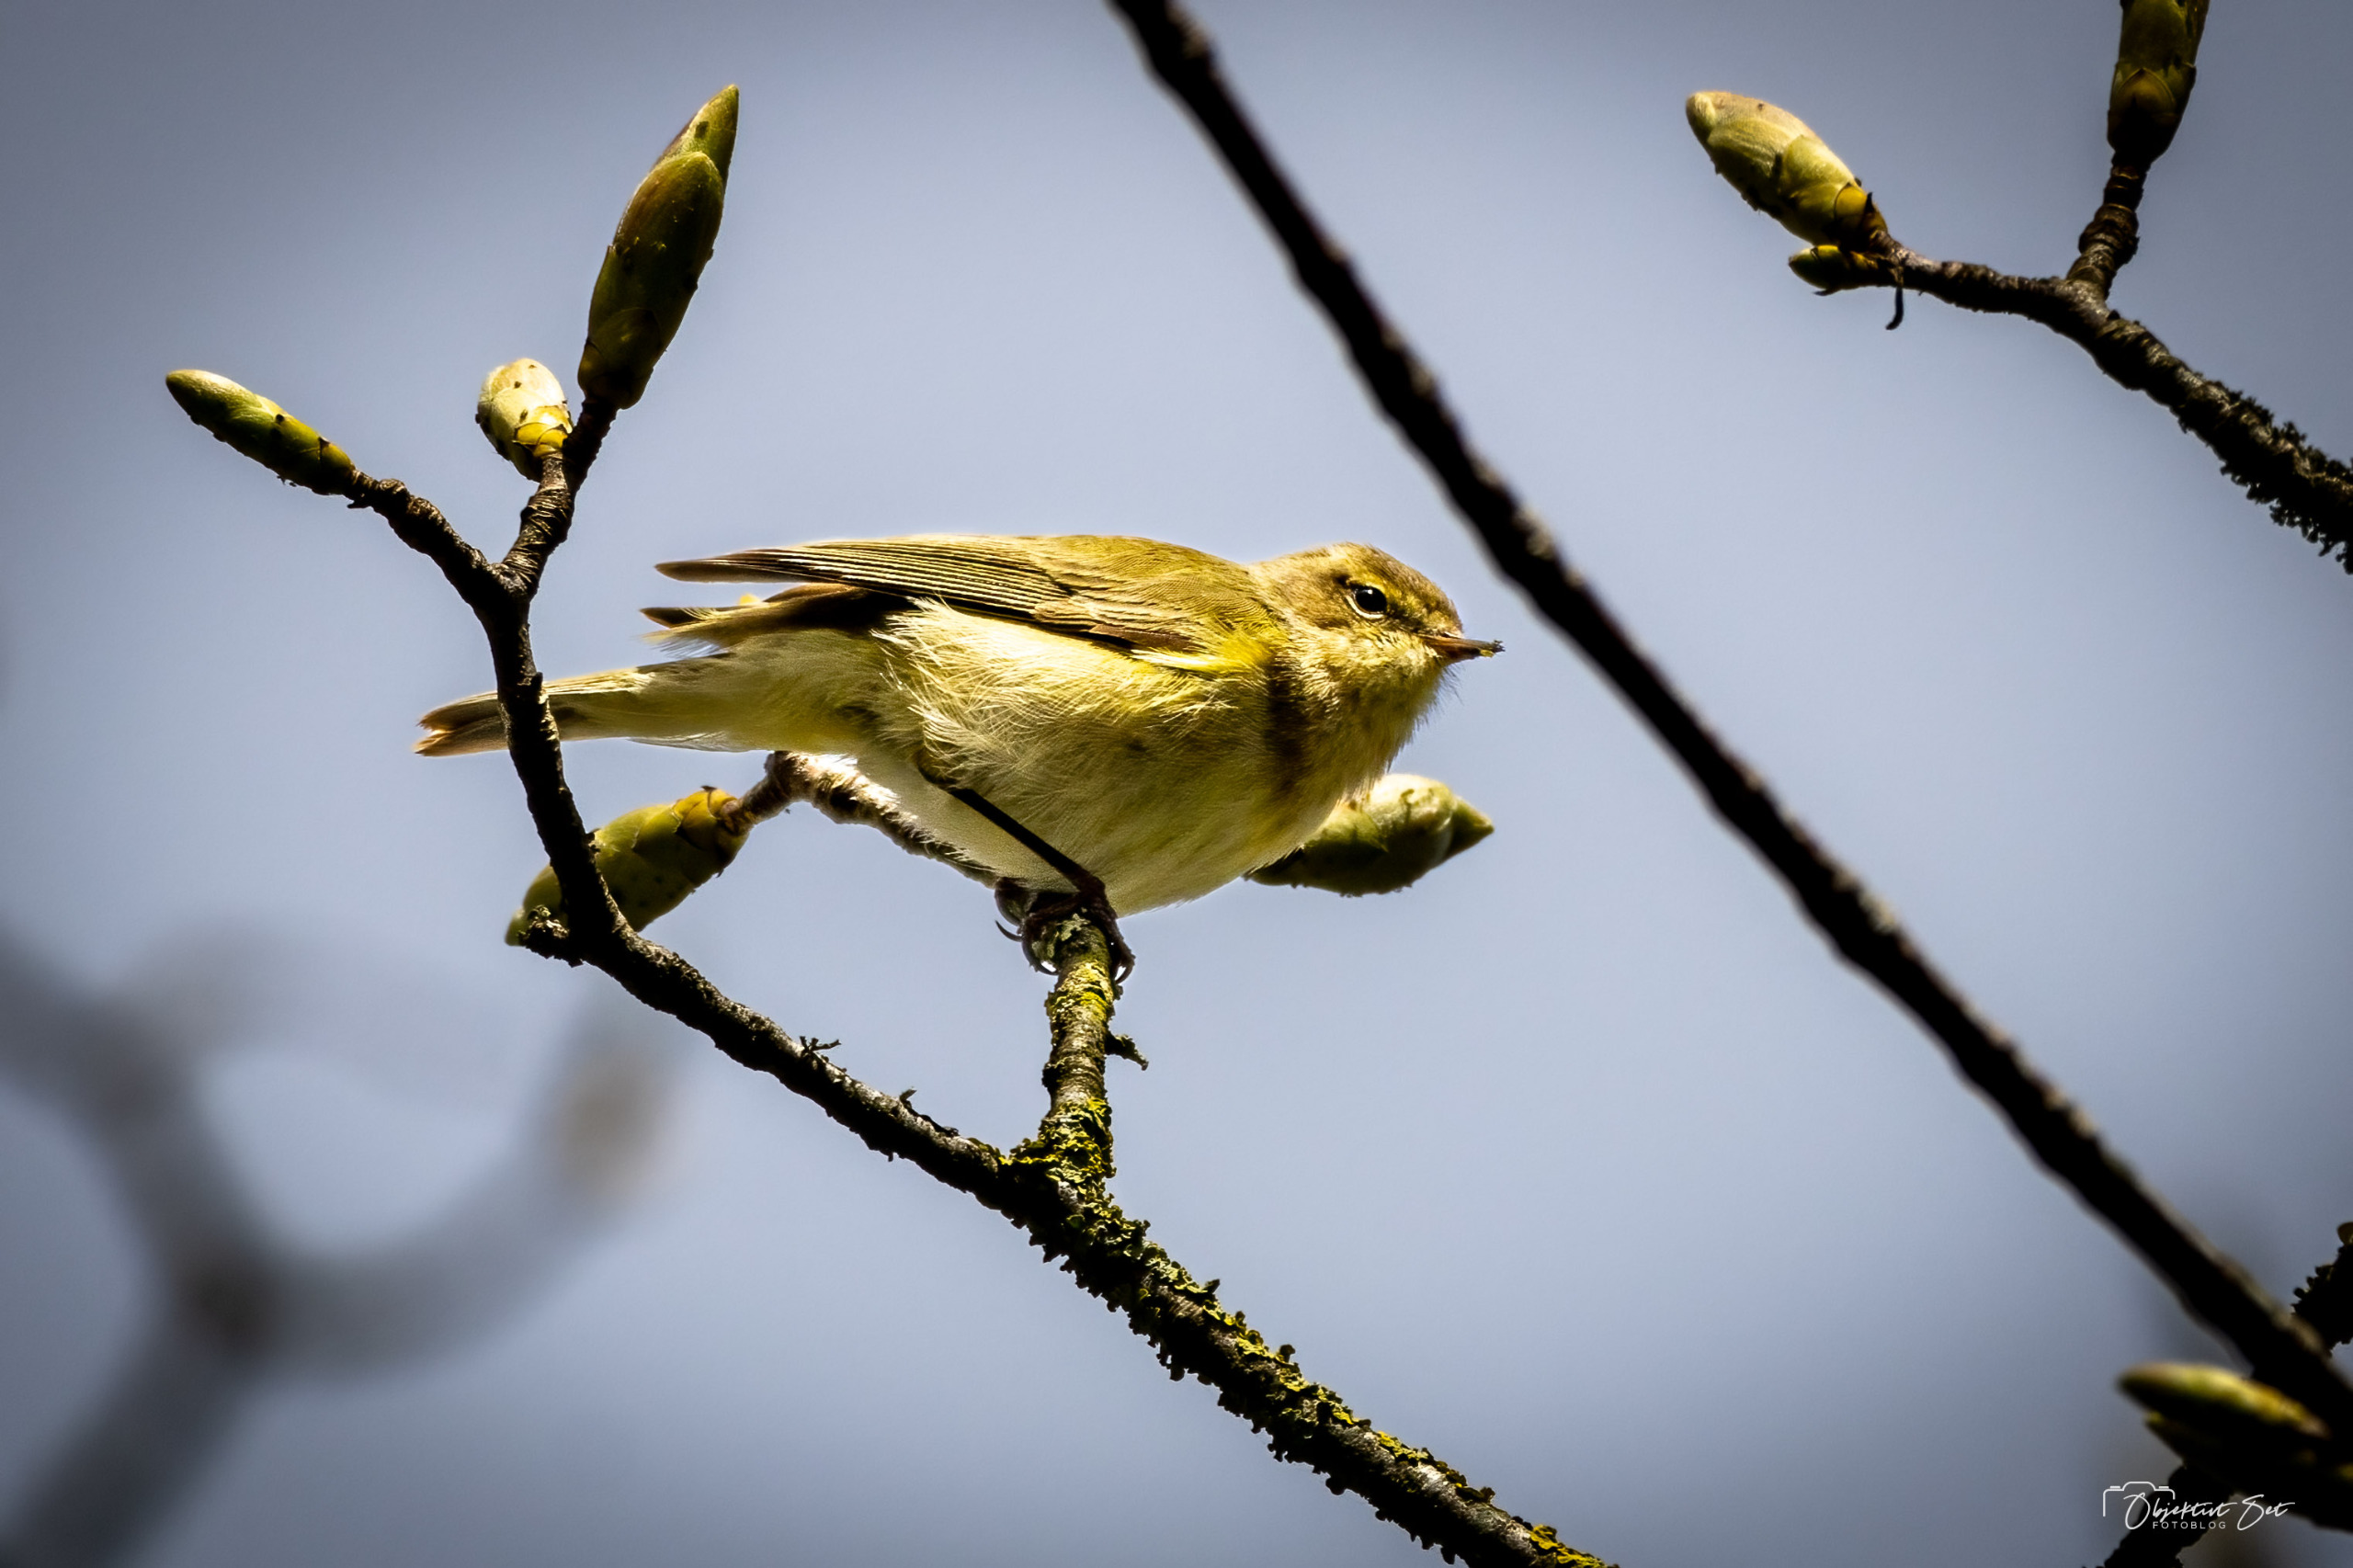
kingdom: Animalia
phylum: Chordata
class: Aves
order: Passeriformes
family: Phylloscopidae
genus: Phylloscopus
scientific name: Phylloscopus collybita
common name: Gransanger
